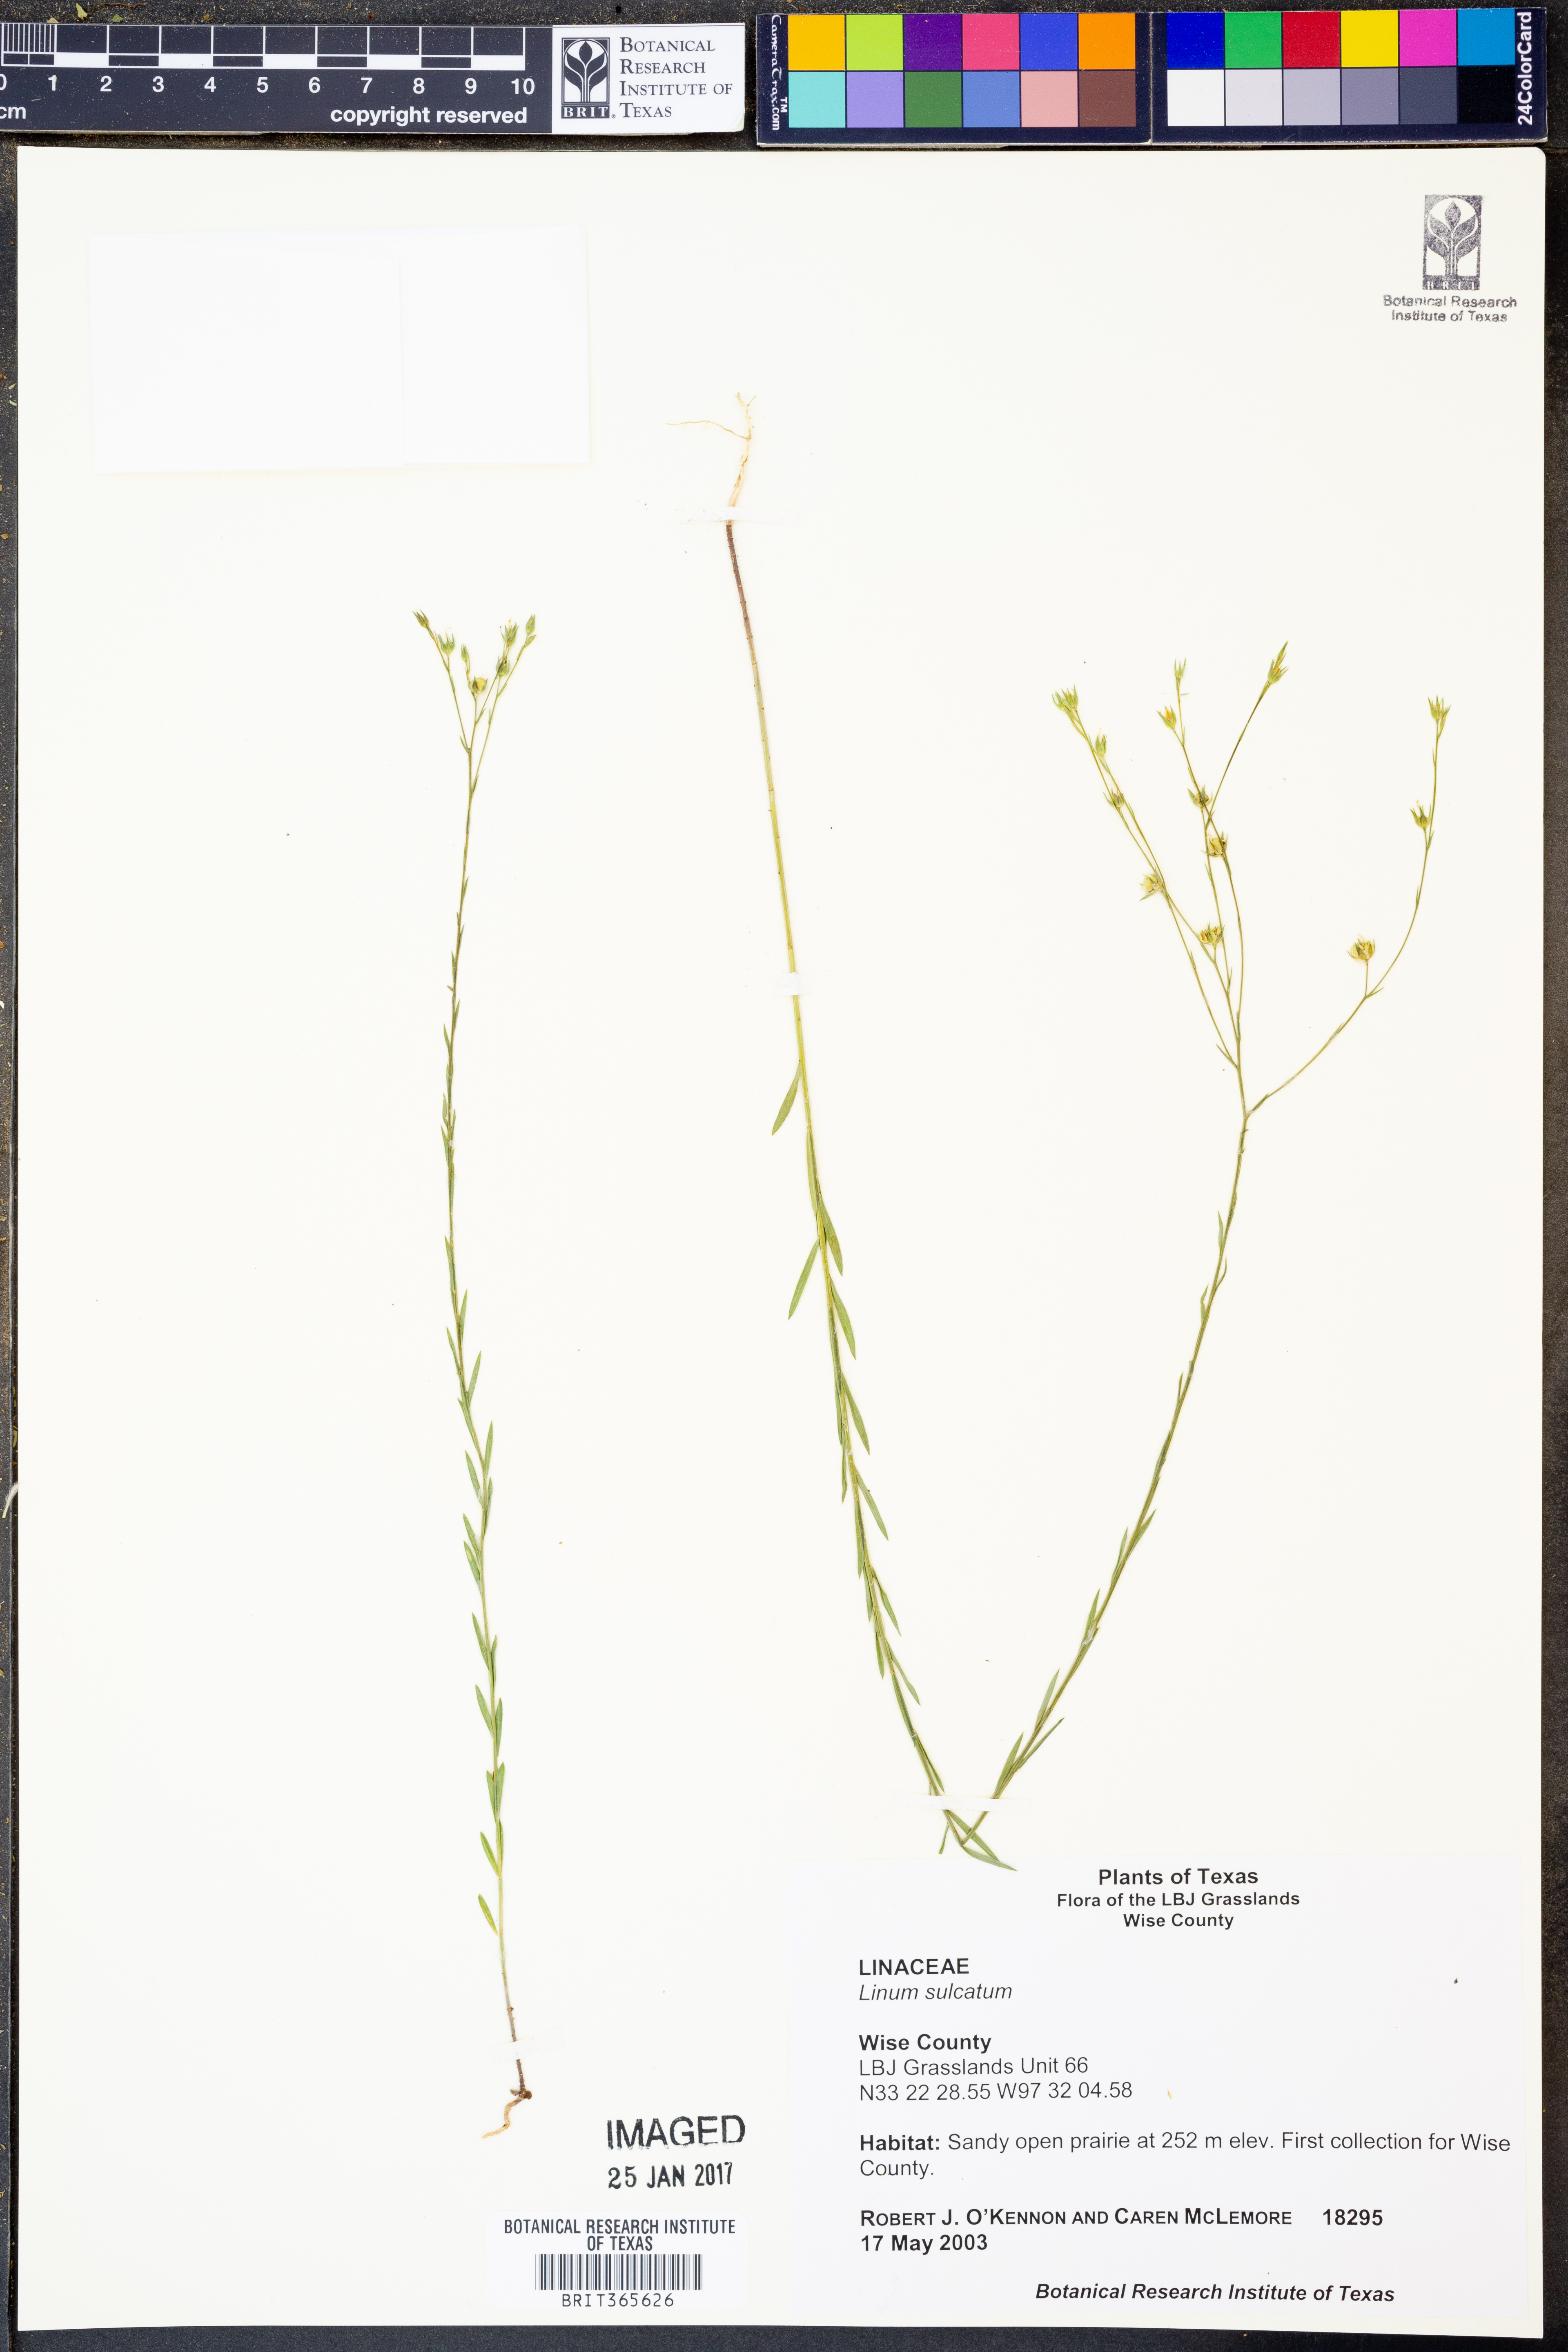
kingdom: Plantae
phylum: Tracheophyta
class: Magnoliopsida
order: Malpighiales
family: Linaceae
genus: Linum
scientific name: Linum sulcatum
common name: Grooved flax
